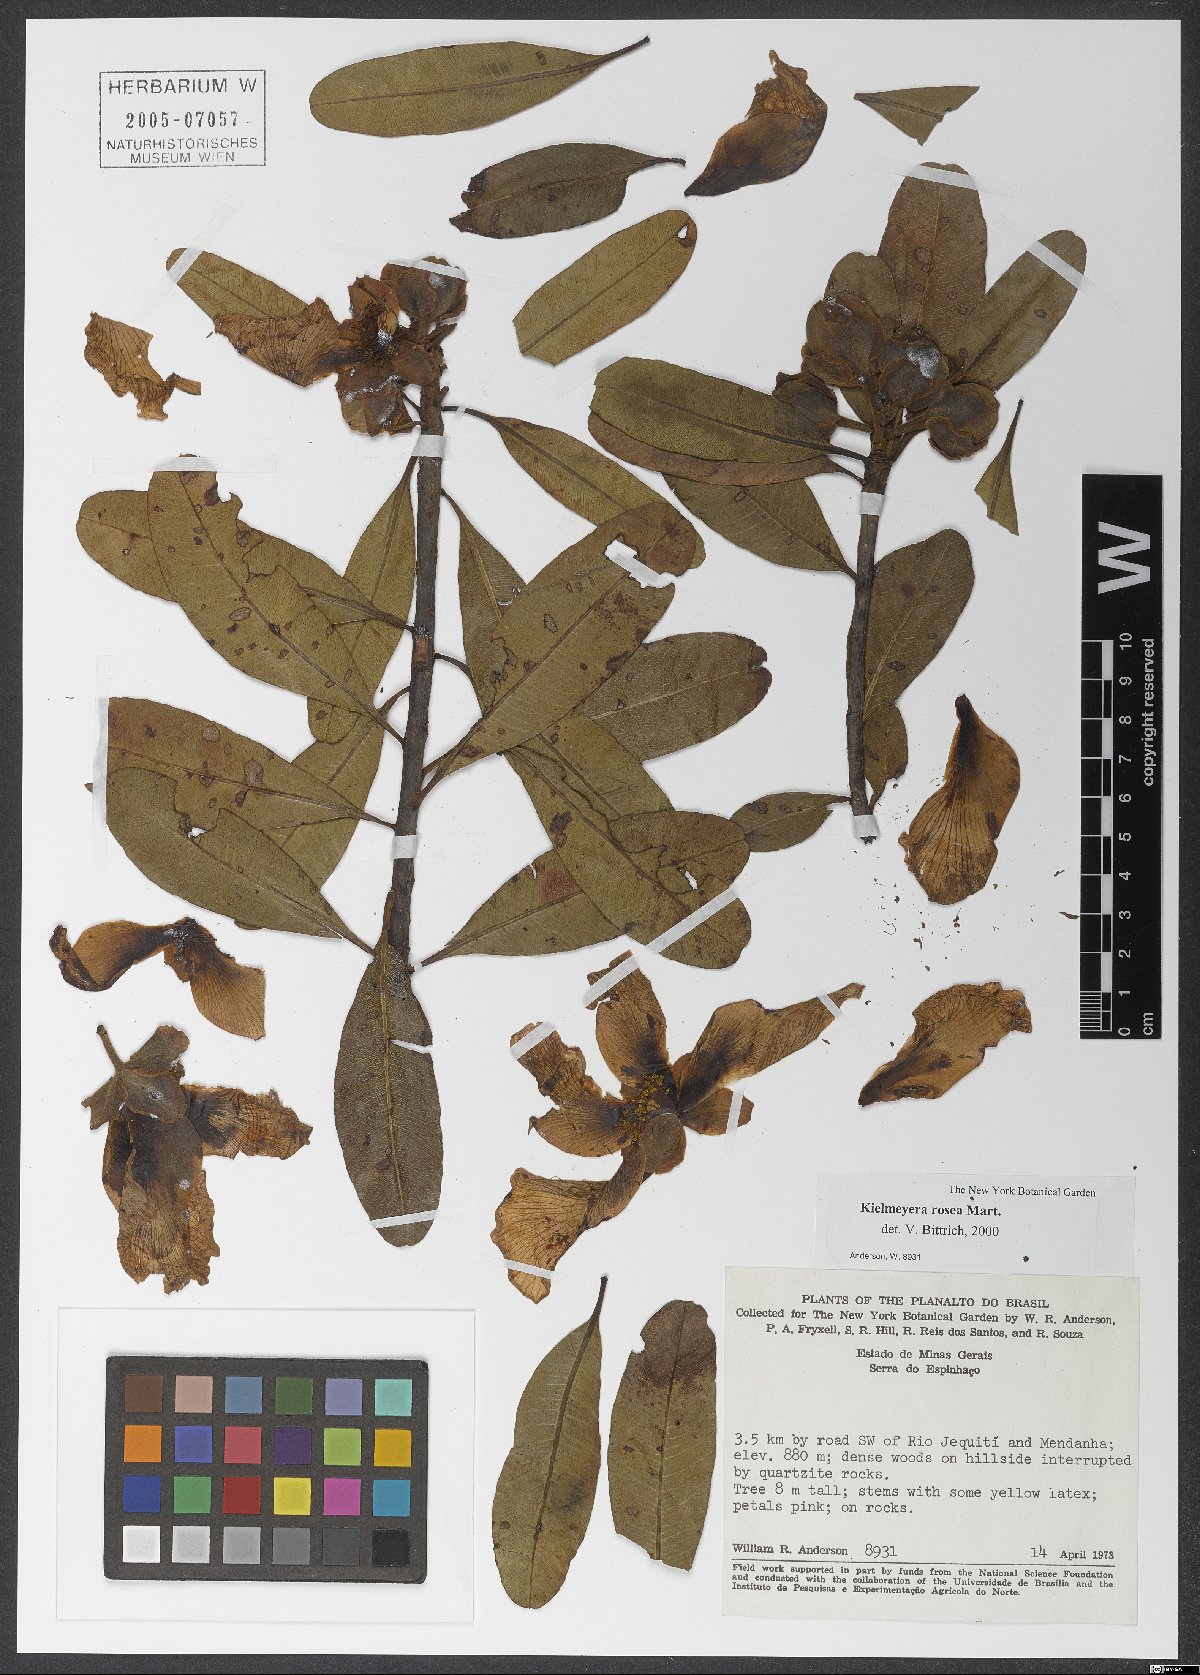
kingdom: Plantae
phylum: Tracheophyta
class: Magnoliopsida
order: Malpighiales
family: Calophyllaceae
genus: Kielmeyera
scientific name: Kielmeyera rosea
